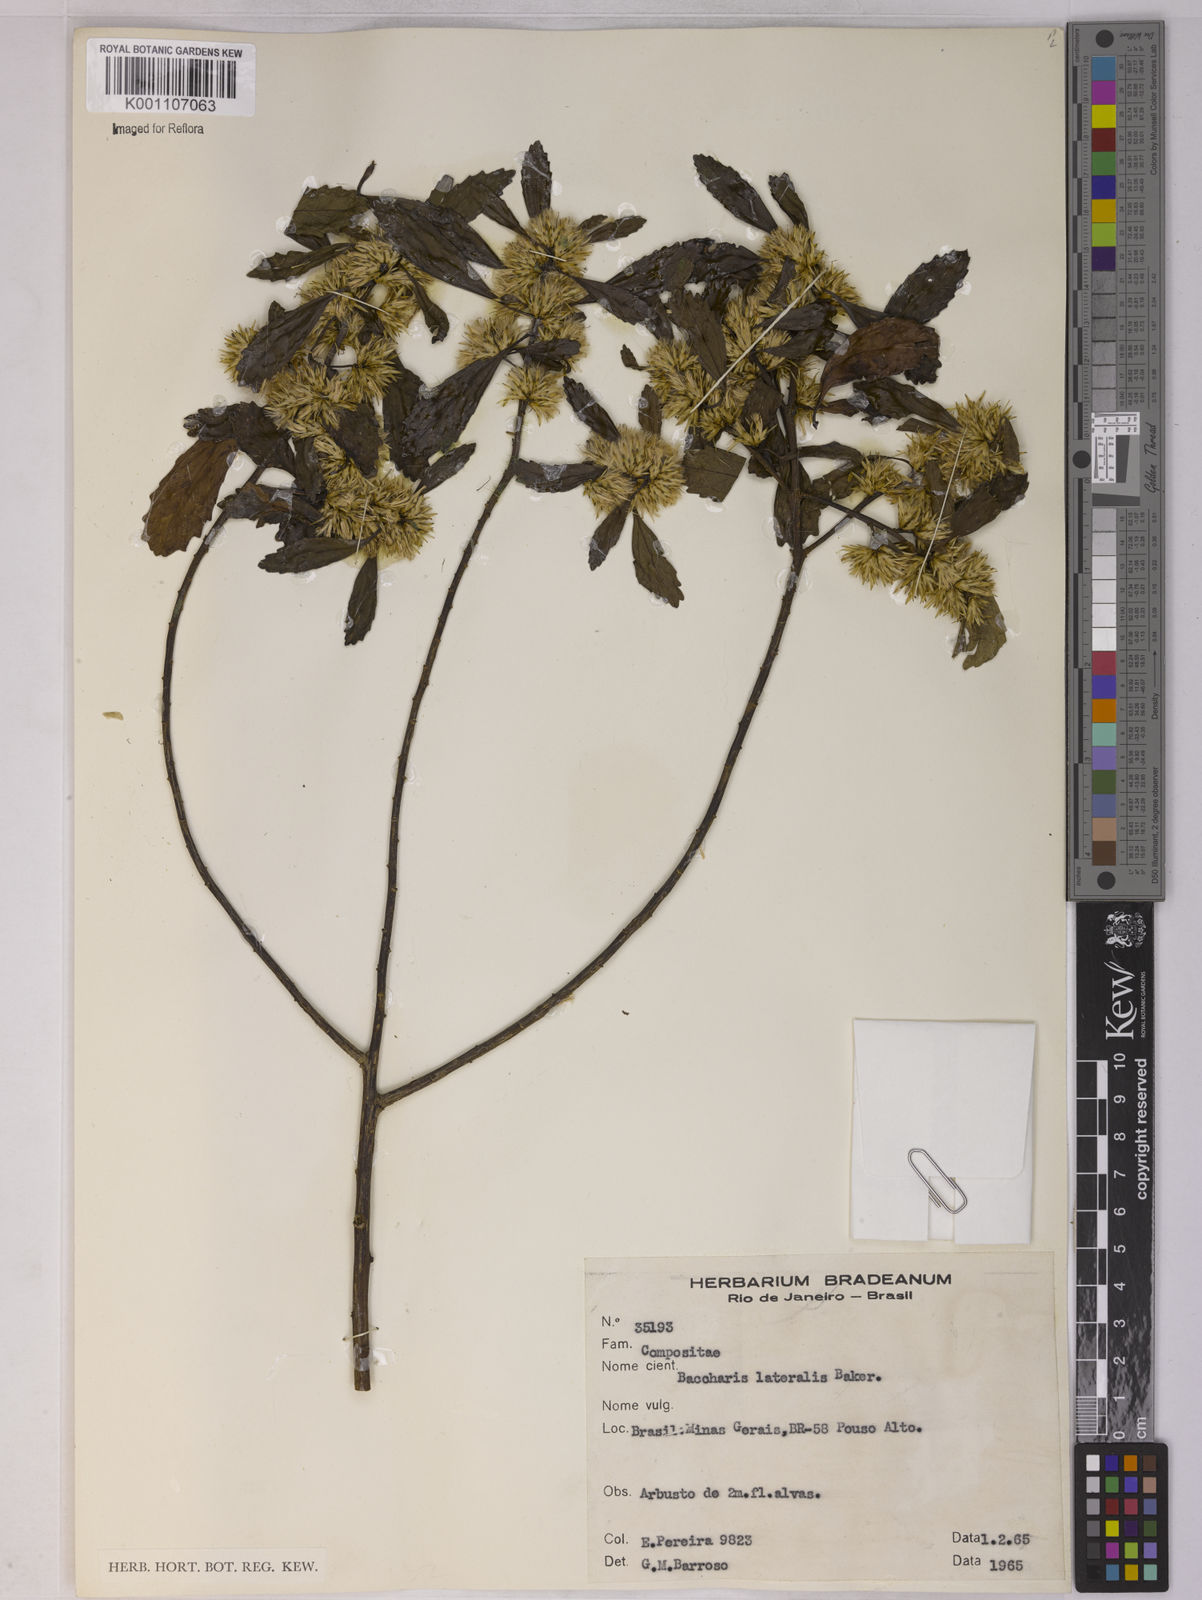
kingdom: Plantae
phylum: Tracheophyta
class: Magnoliopsida
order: Asterales
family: Asteraceae
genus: Baccharis
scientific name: Baccharis lateralis
